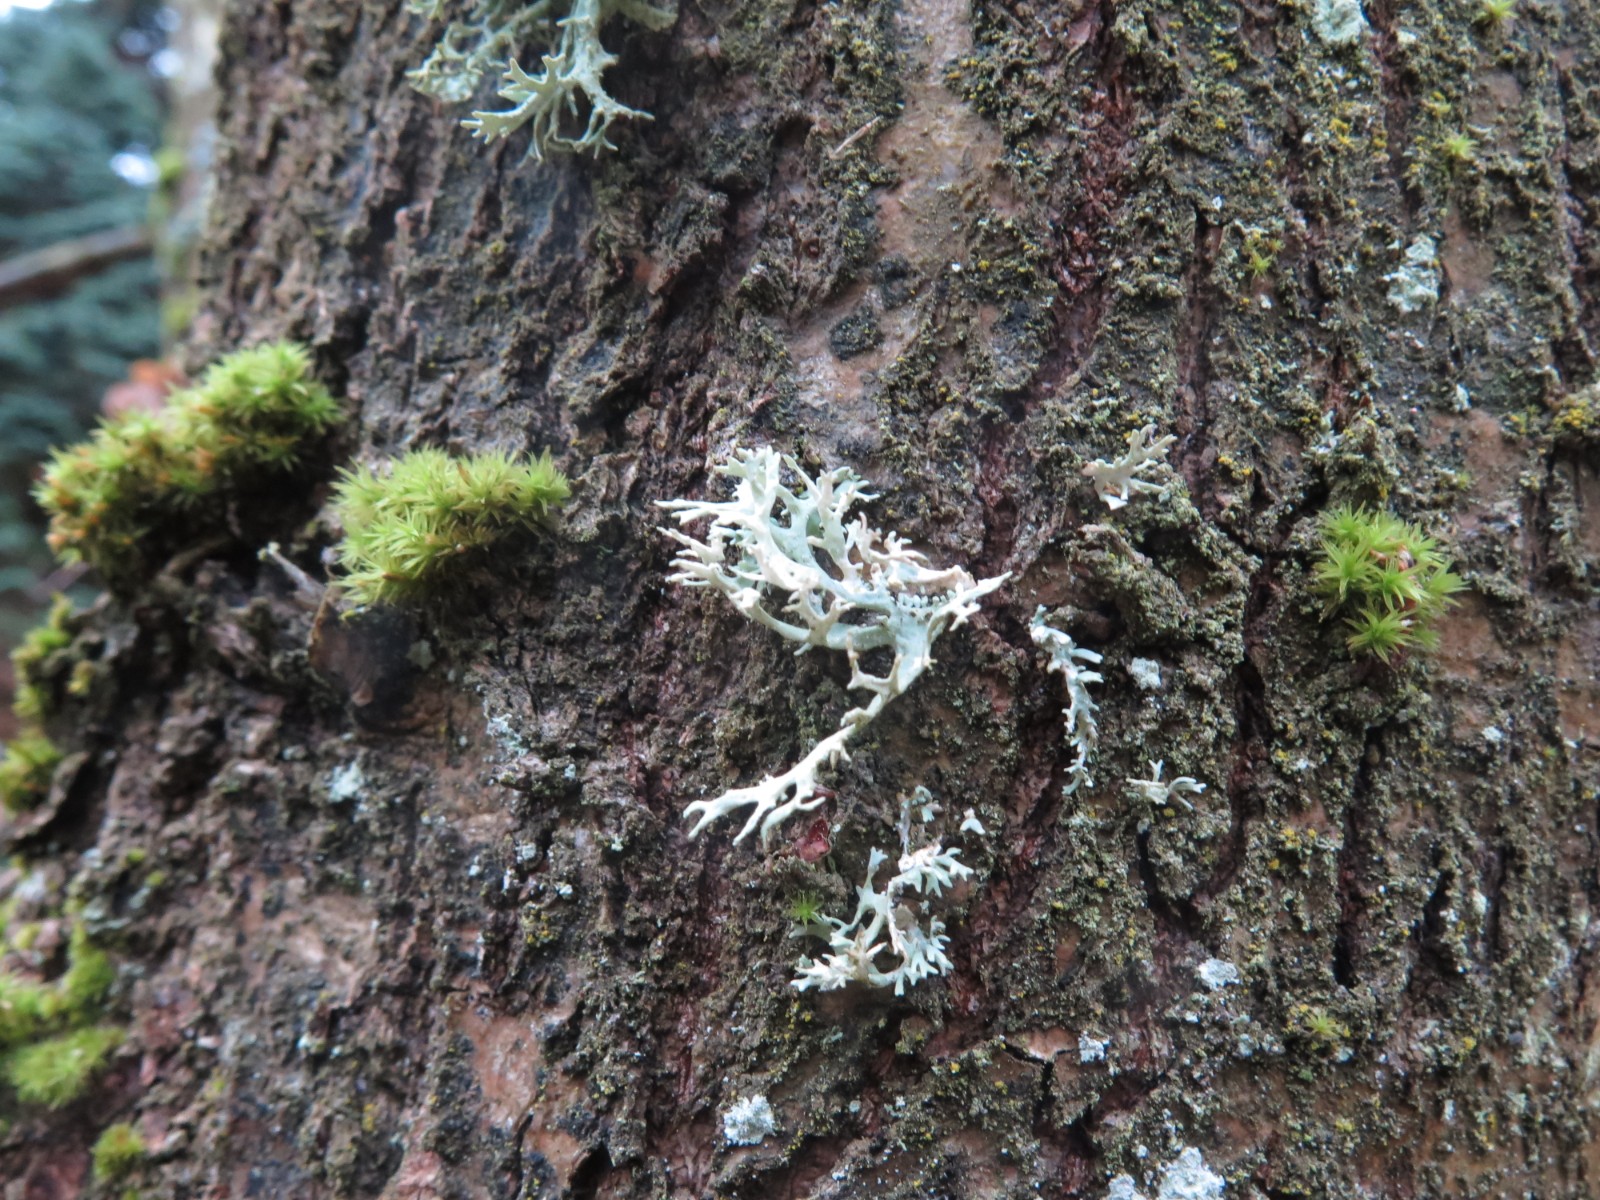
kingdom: Fungi
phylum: Ascomycota
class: Lecanoromycetes
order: Lecanorales
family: Parmeliaceae
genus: Evernia
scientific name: Evernia prunastri
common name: almindelig slåenlav
